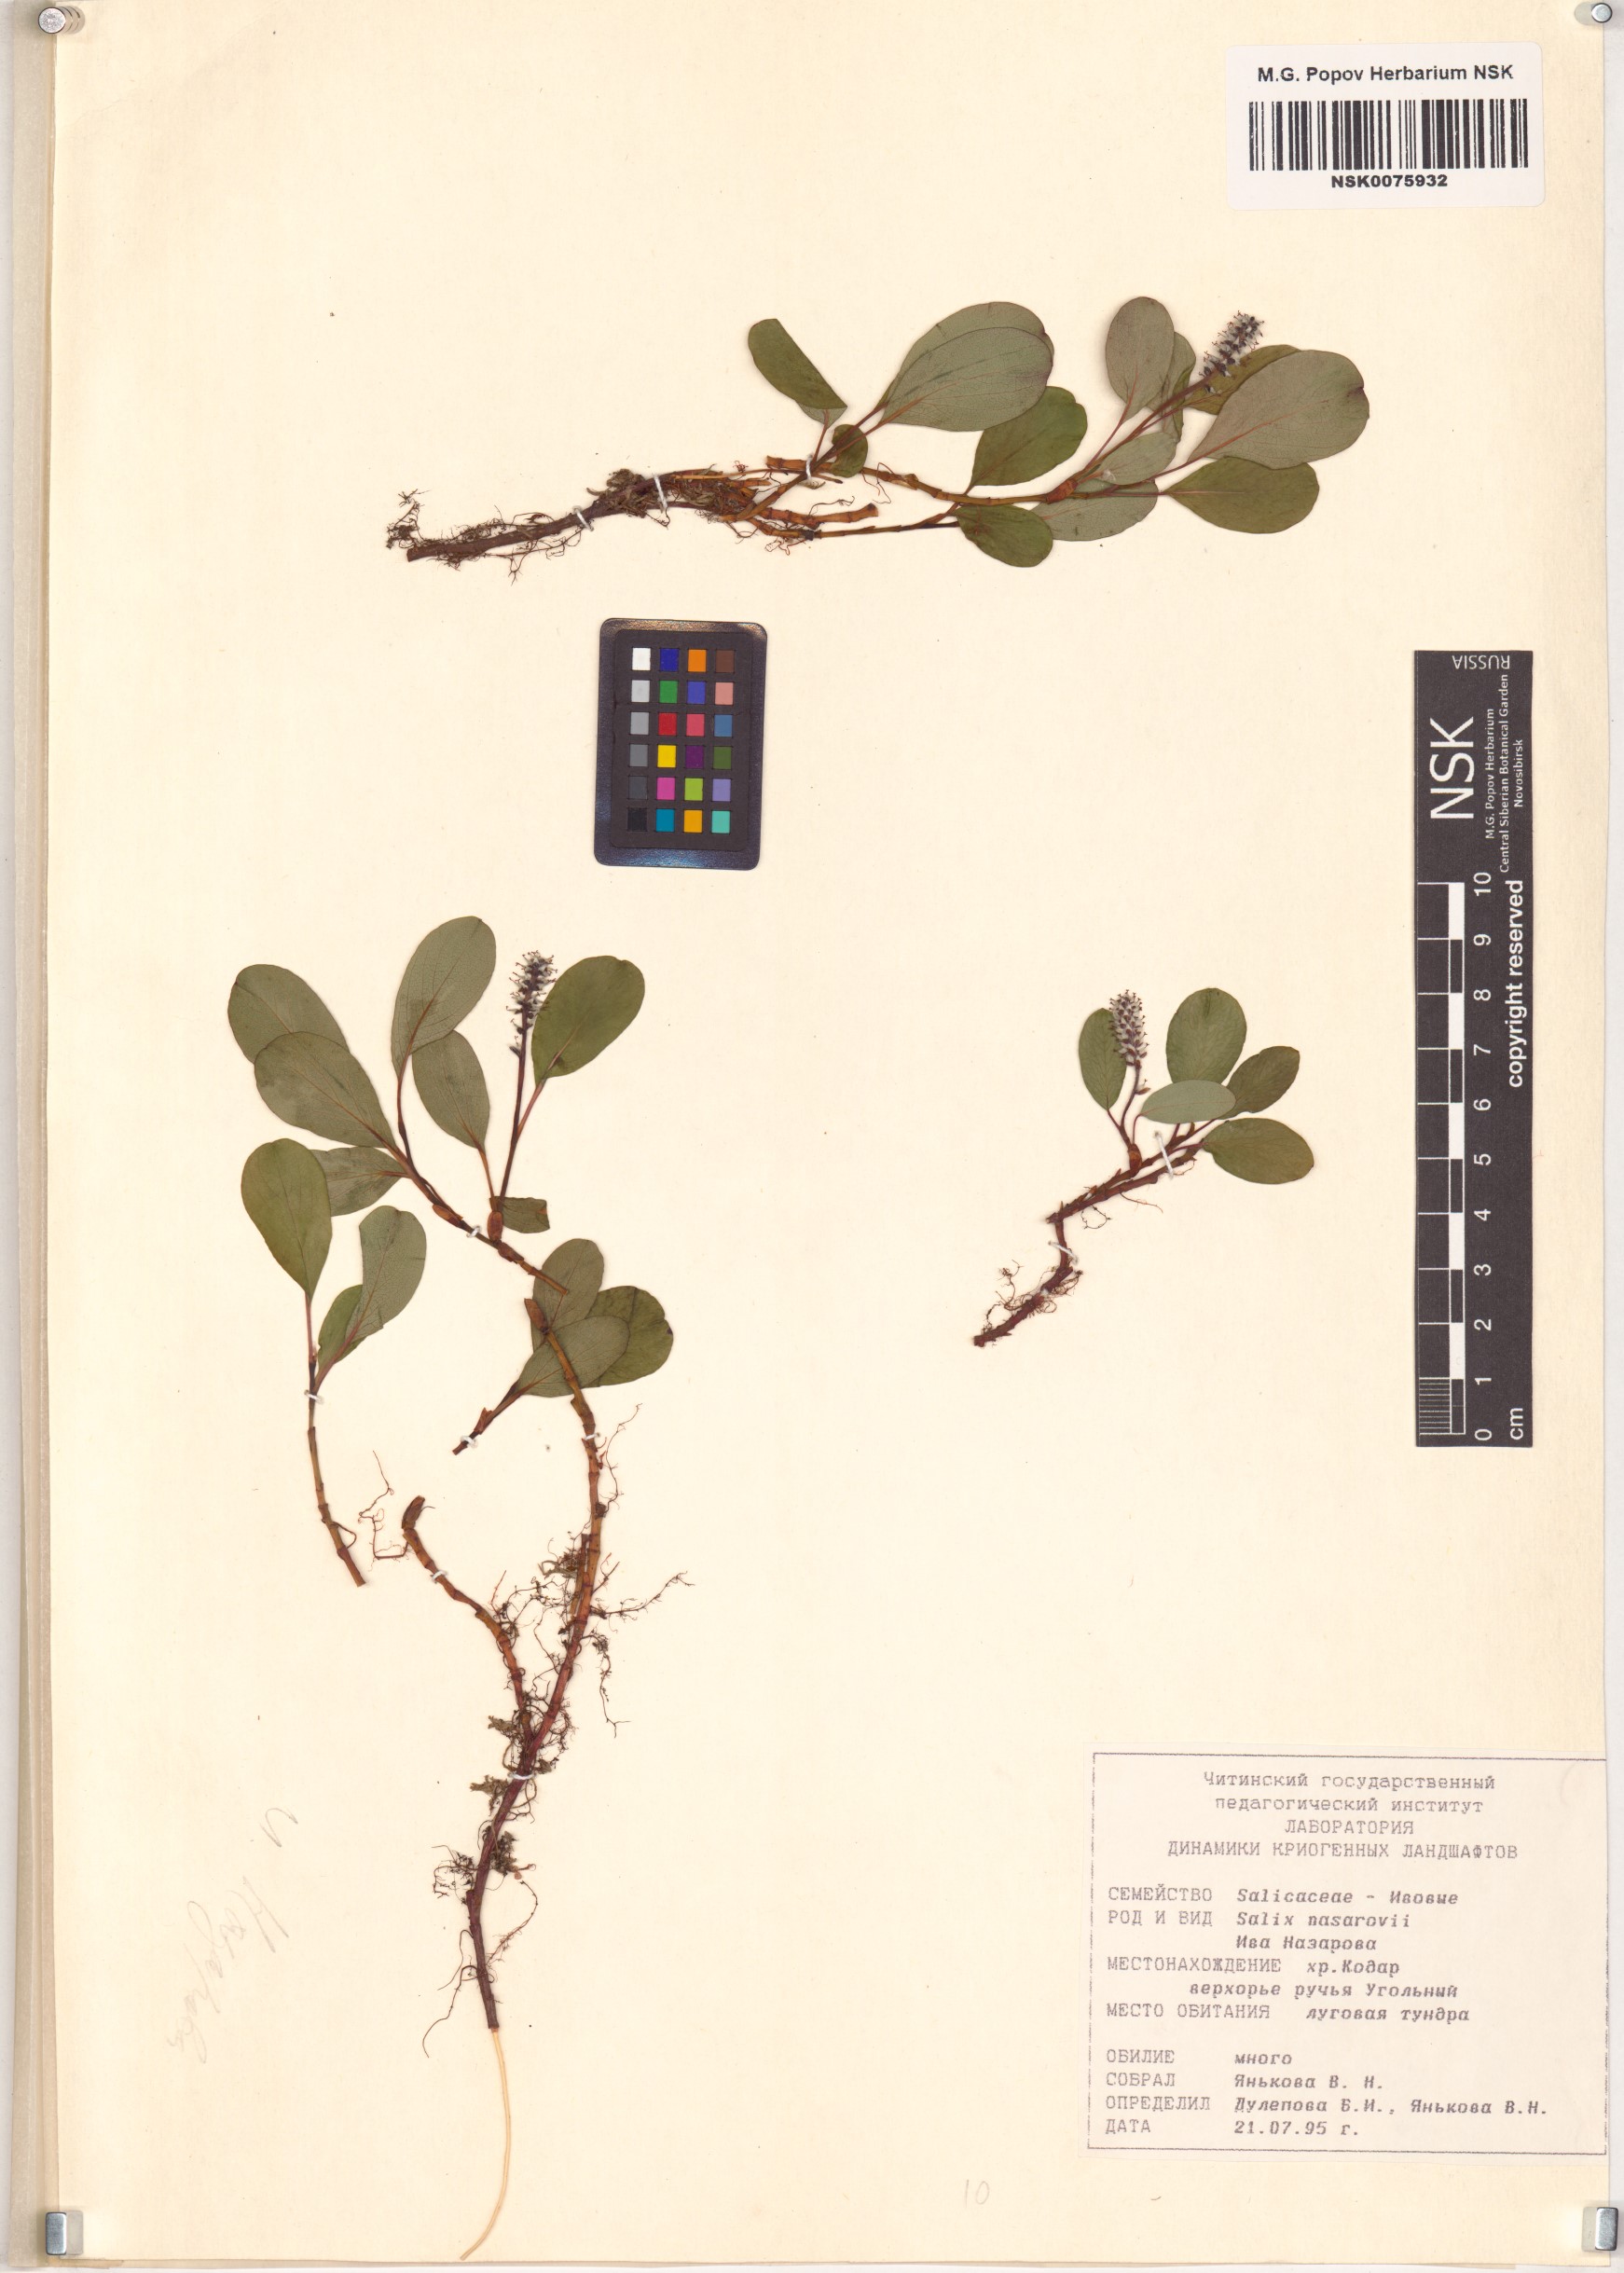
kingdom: Plantae
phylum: Tracheophyta
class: Magnoliopsida
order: Malpighiales
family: Salicaceae
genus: Salix
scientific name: Salix nasarovii
